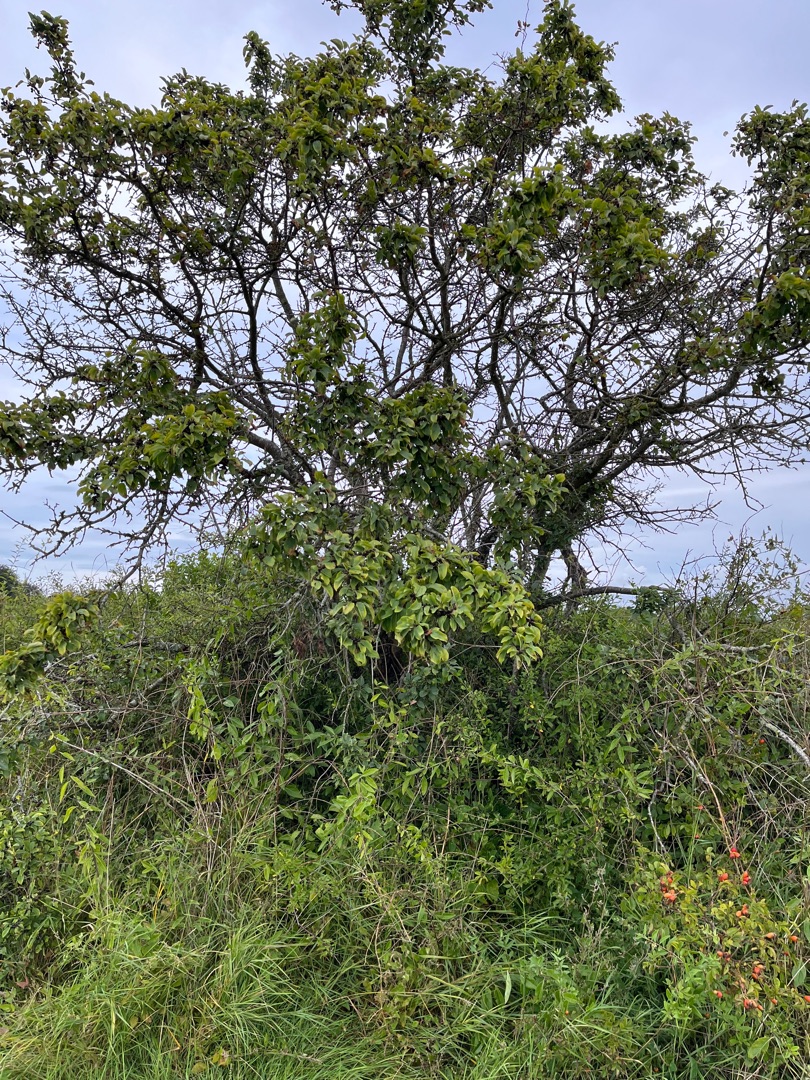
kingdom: Plantae
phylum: Tracheophyta
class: Magnoliopsida
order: Rosales
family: Rhamnaceae
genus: Rhamnus
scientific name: Rhamnus cathartica
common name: Vrietorn
